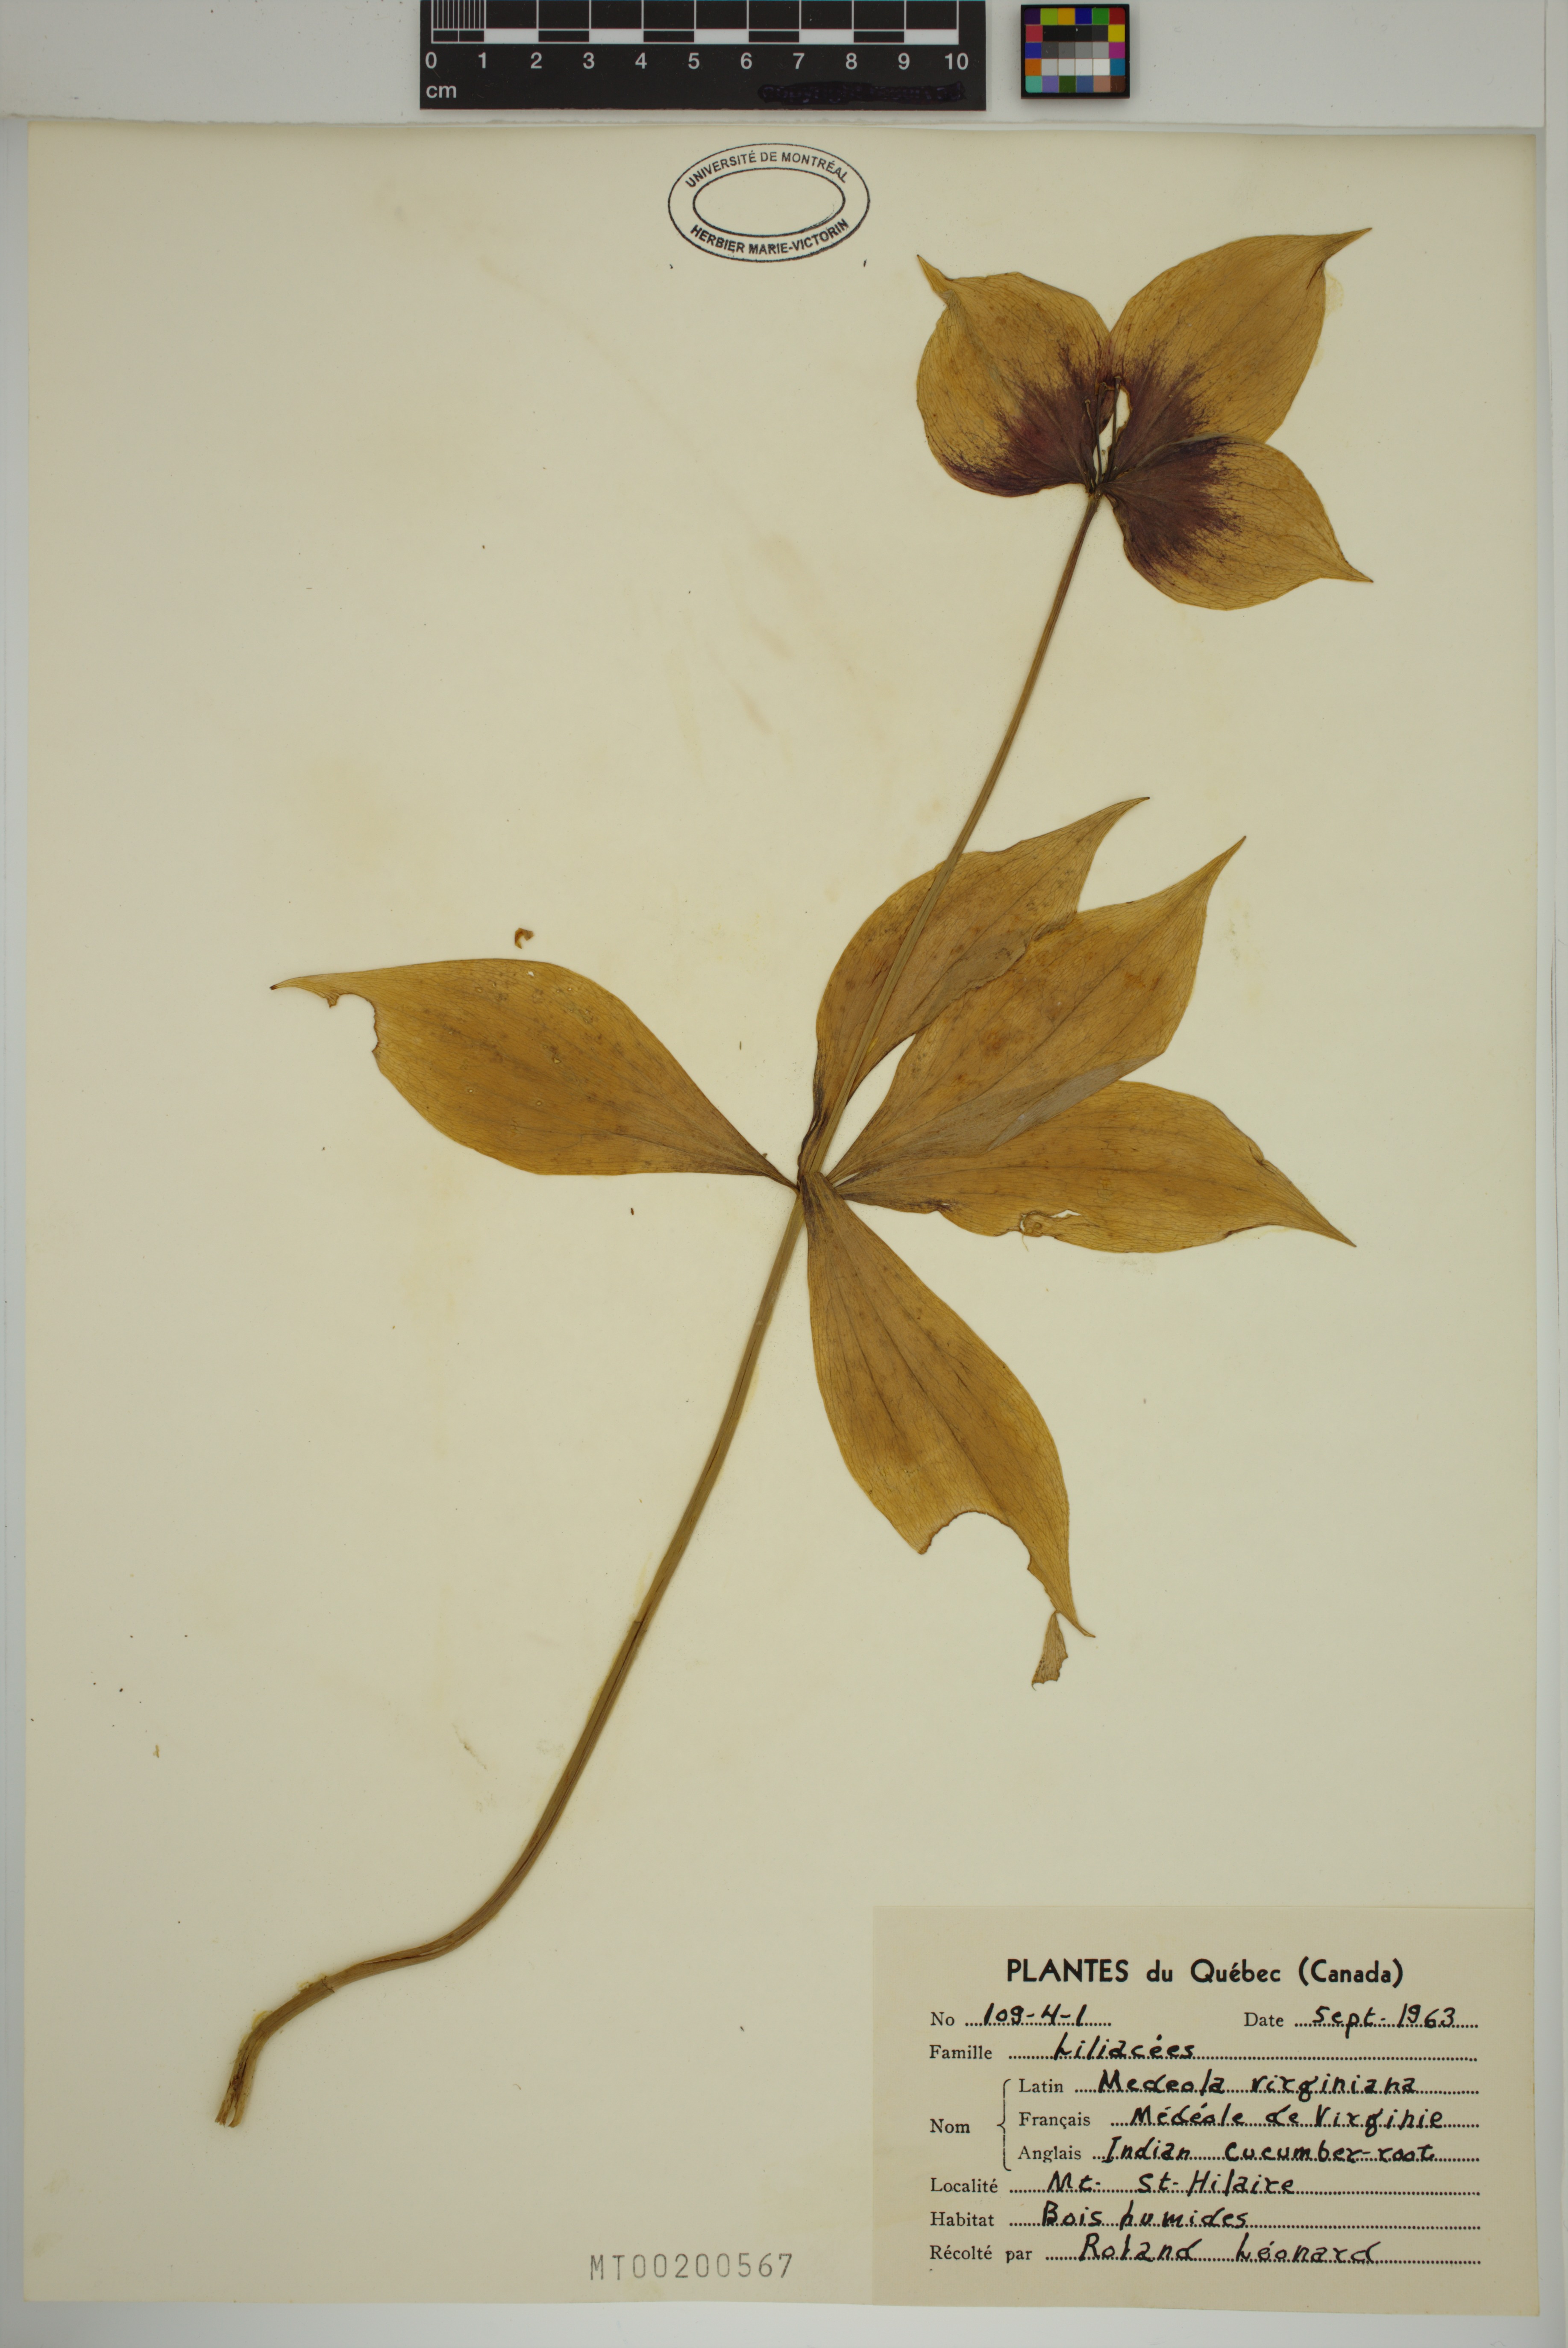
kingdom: Plantae
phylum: Tracheophyta
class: Liliopsida
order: Liliales
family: Liliaceae
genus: Medeola
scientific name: Medeola virginiana
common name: Indian cucumber-root
